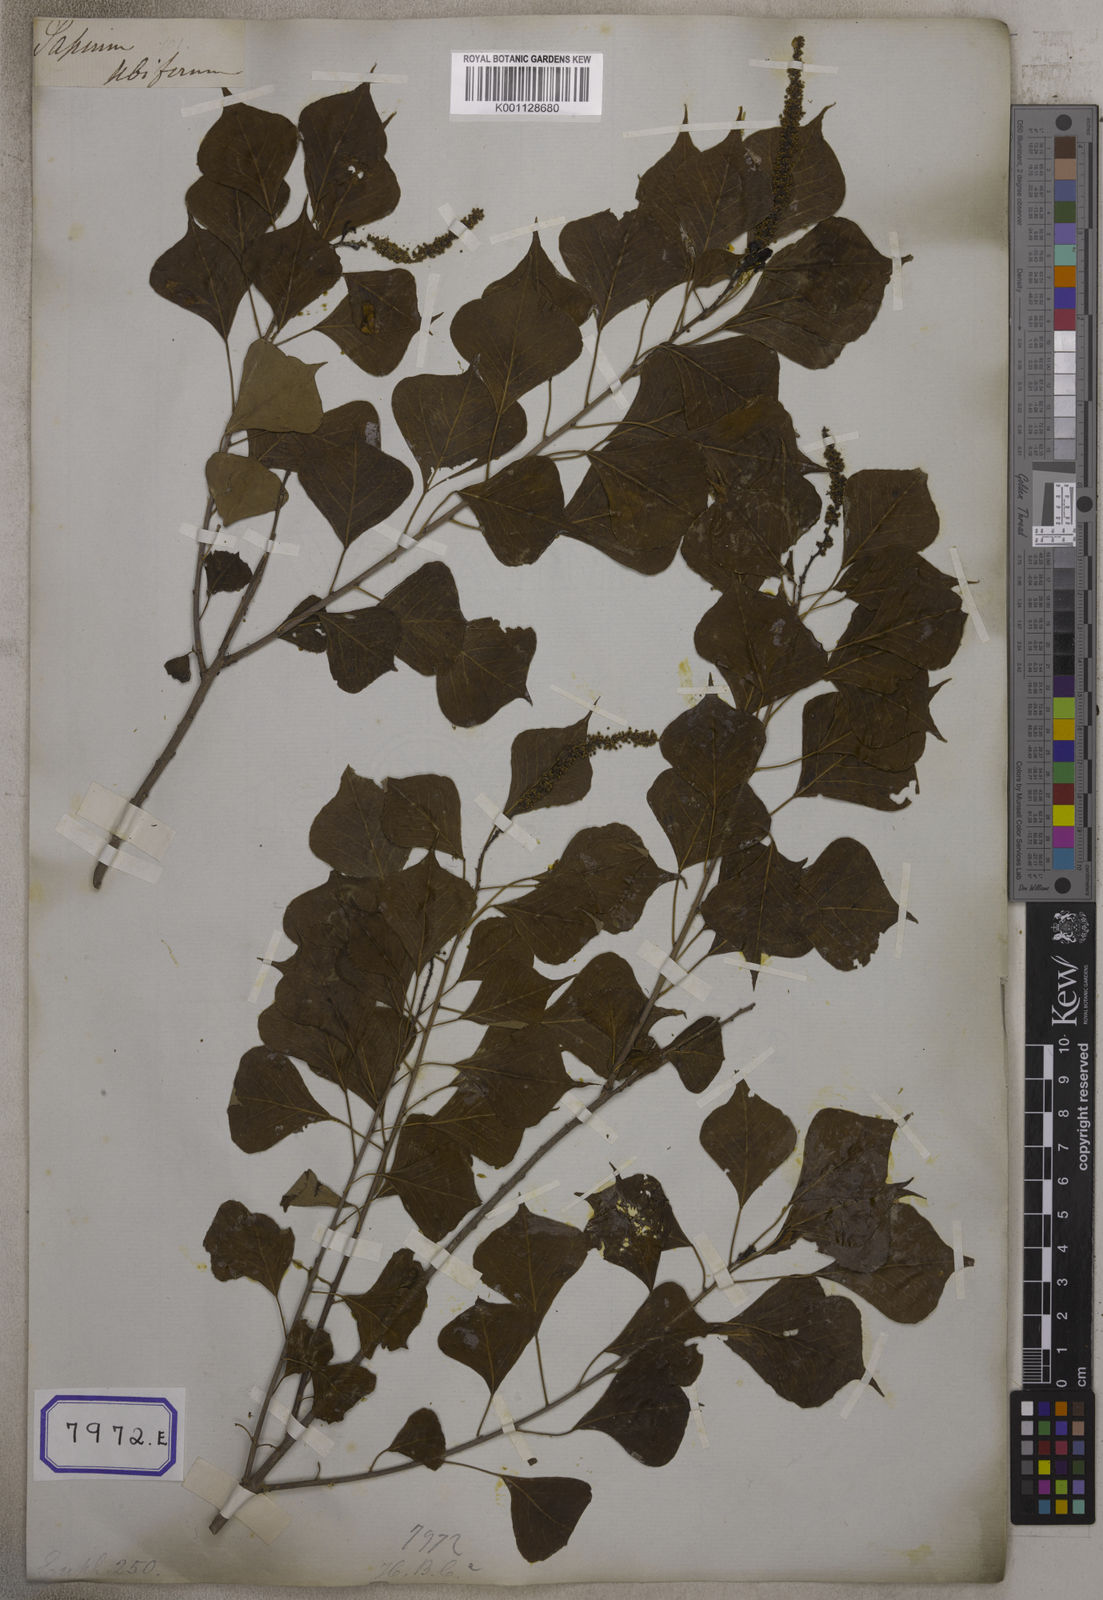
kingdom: Plantae
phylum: Tracheophyta
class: Magnoliopsida
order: Malpighiales
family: Euphorbiaceae
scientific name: Euphorbiaceae
